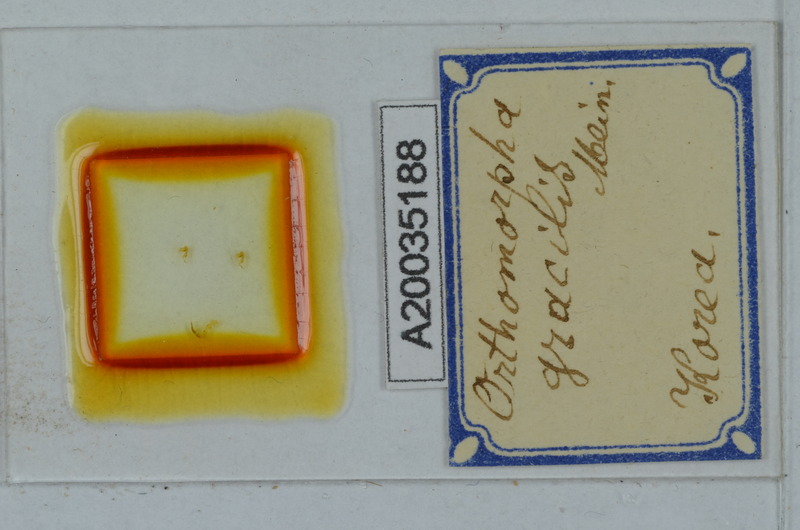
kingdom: Animalia
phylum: Arthropoda
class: Diplopoda
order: Polydesmida
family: Paradoxosomatidae
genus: Oxidus
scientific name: Oxidus gracilis
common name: Greenhouse millipede
